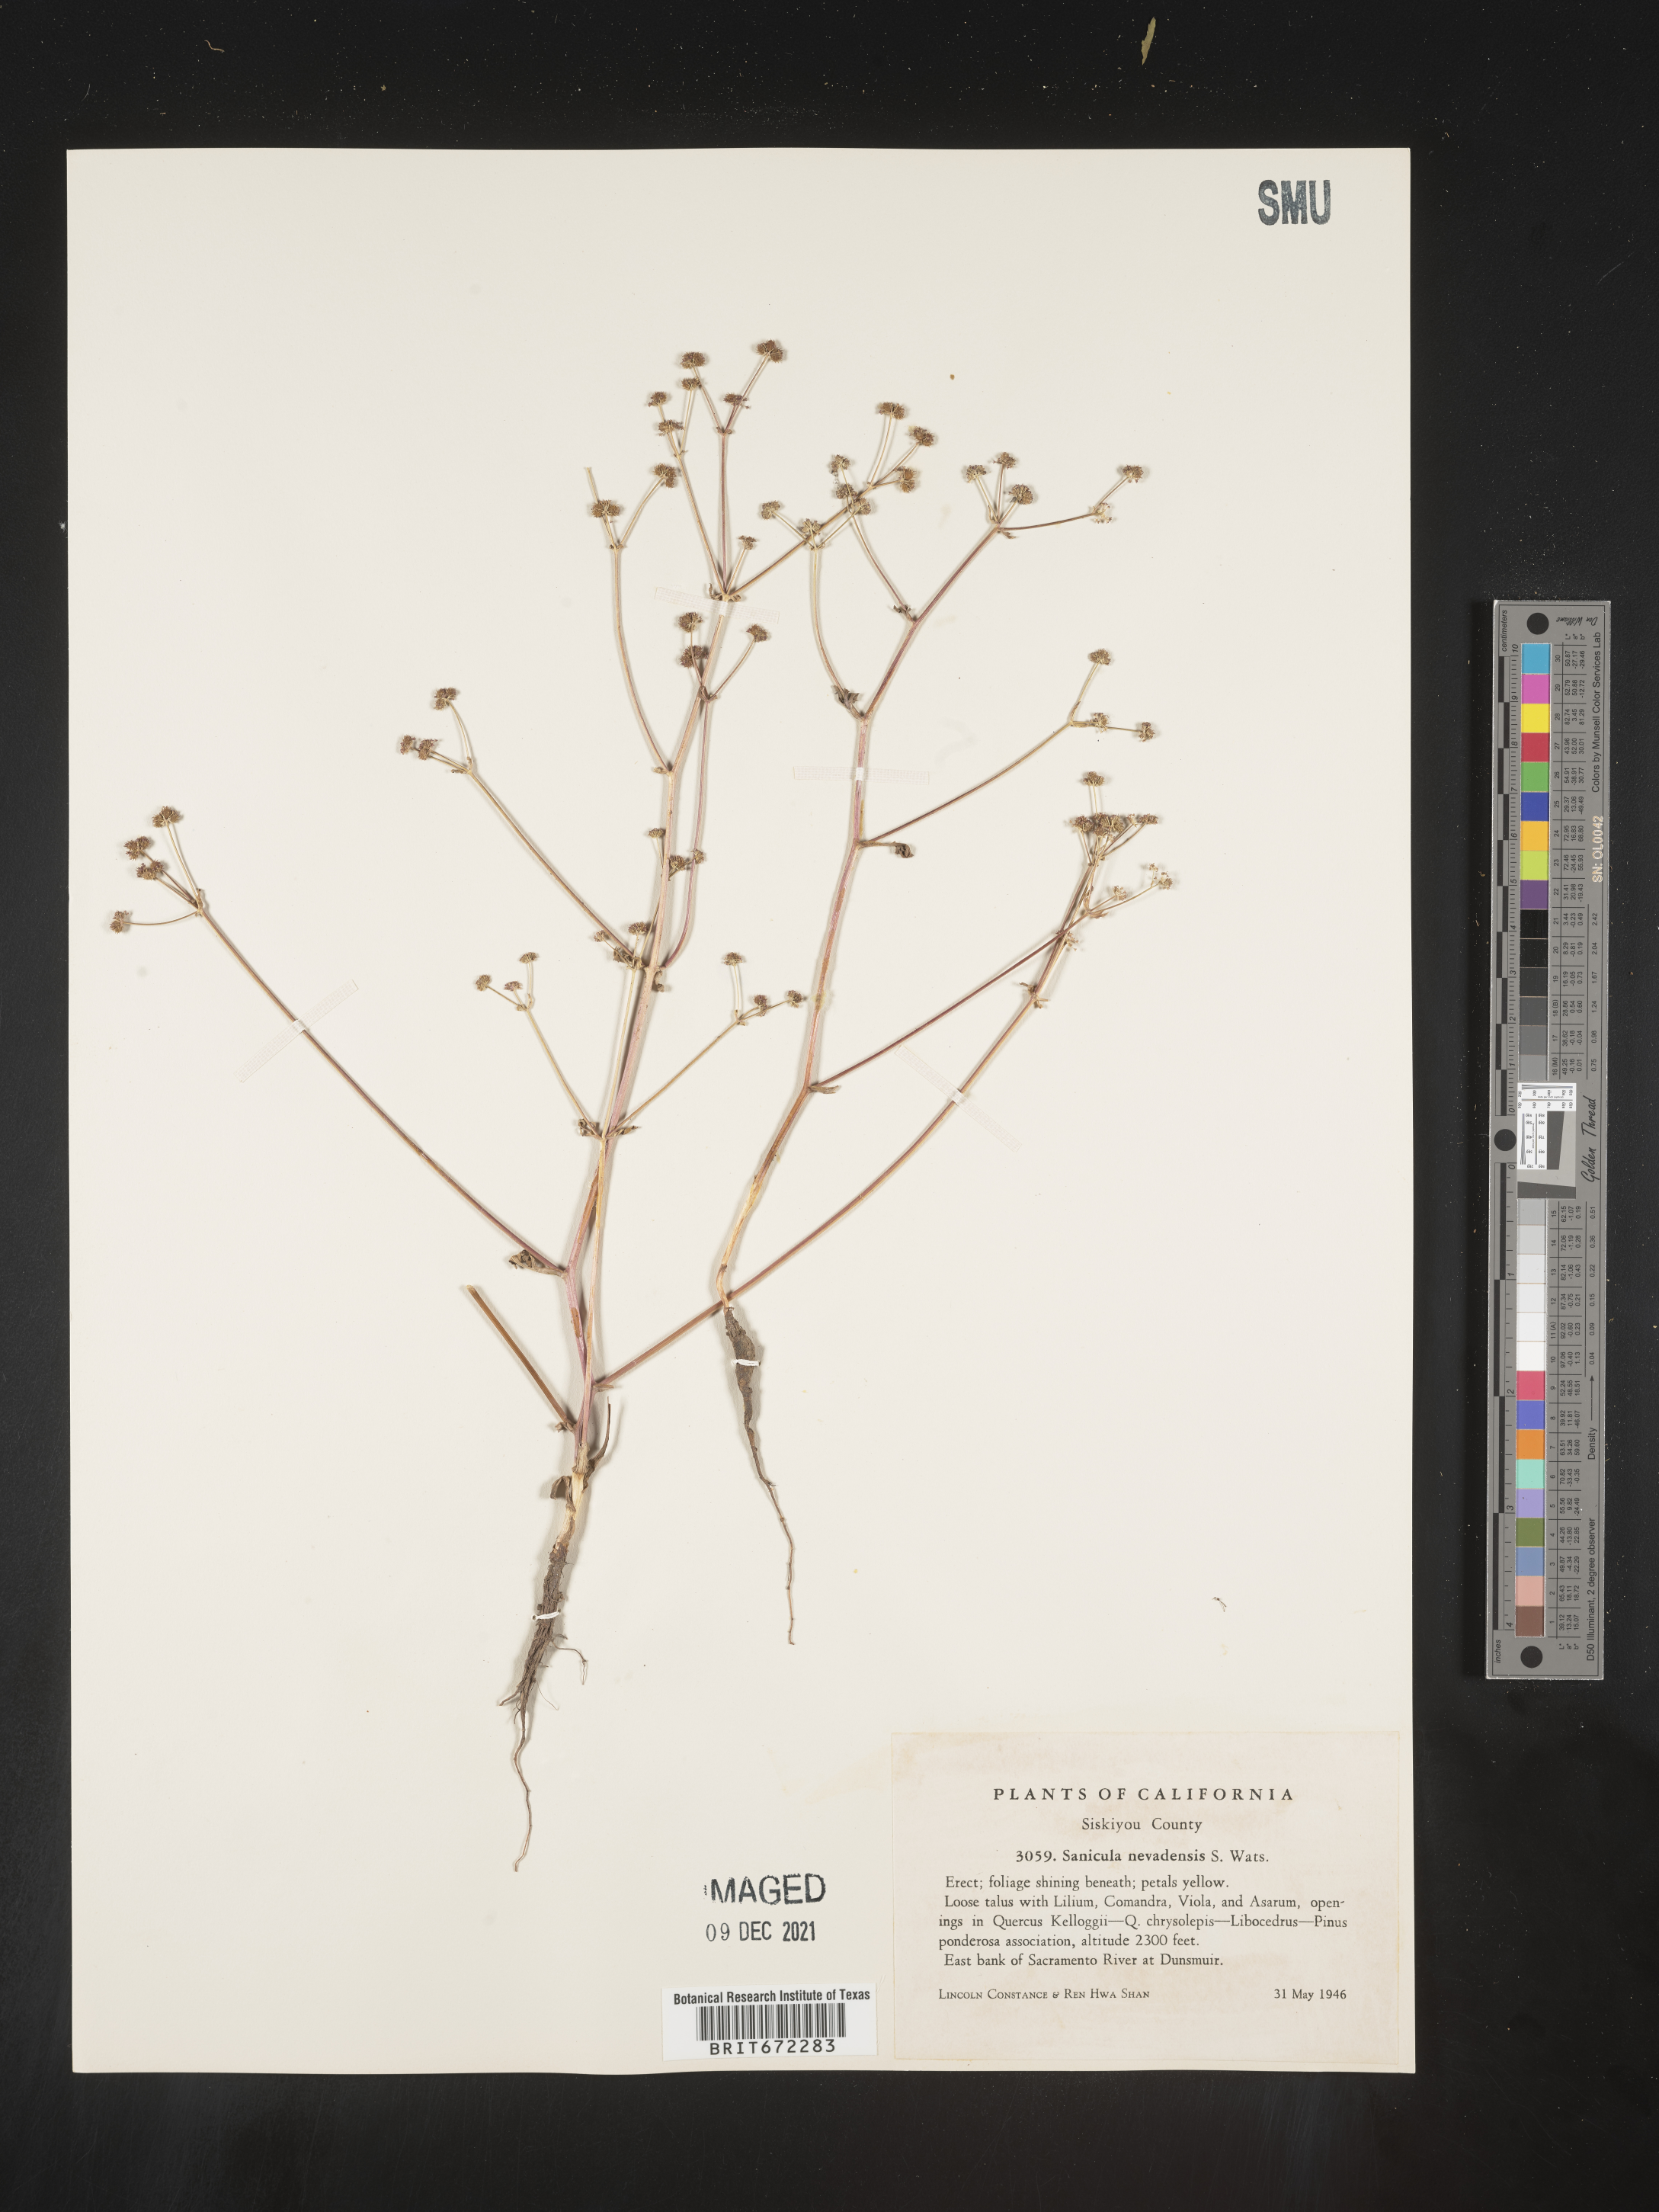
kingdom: Plantae
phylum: Tracheophyta
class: Magnoliopsida
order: Apiales
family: Apiaceae
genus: Sanicula
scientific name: Sanicula
